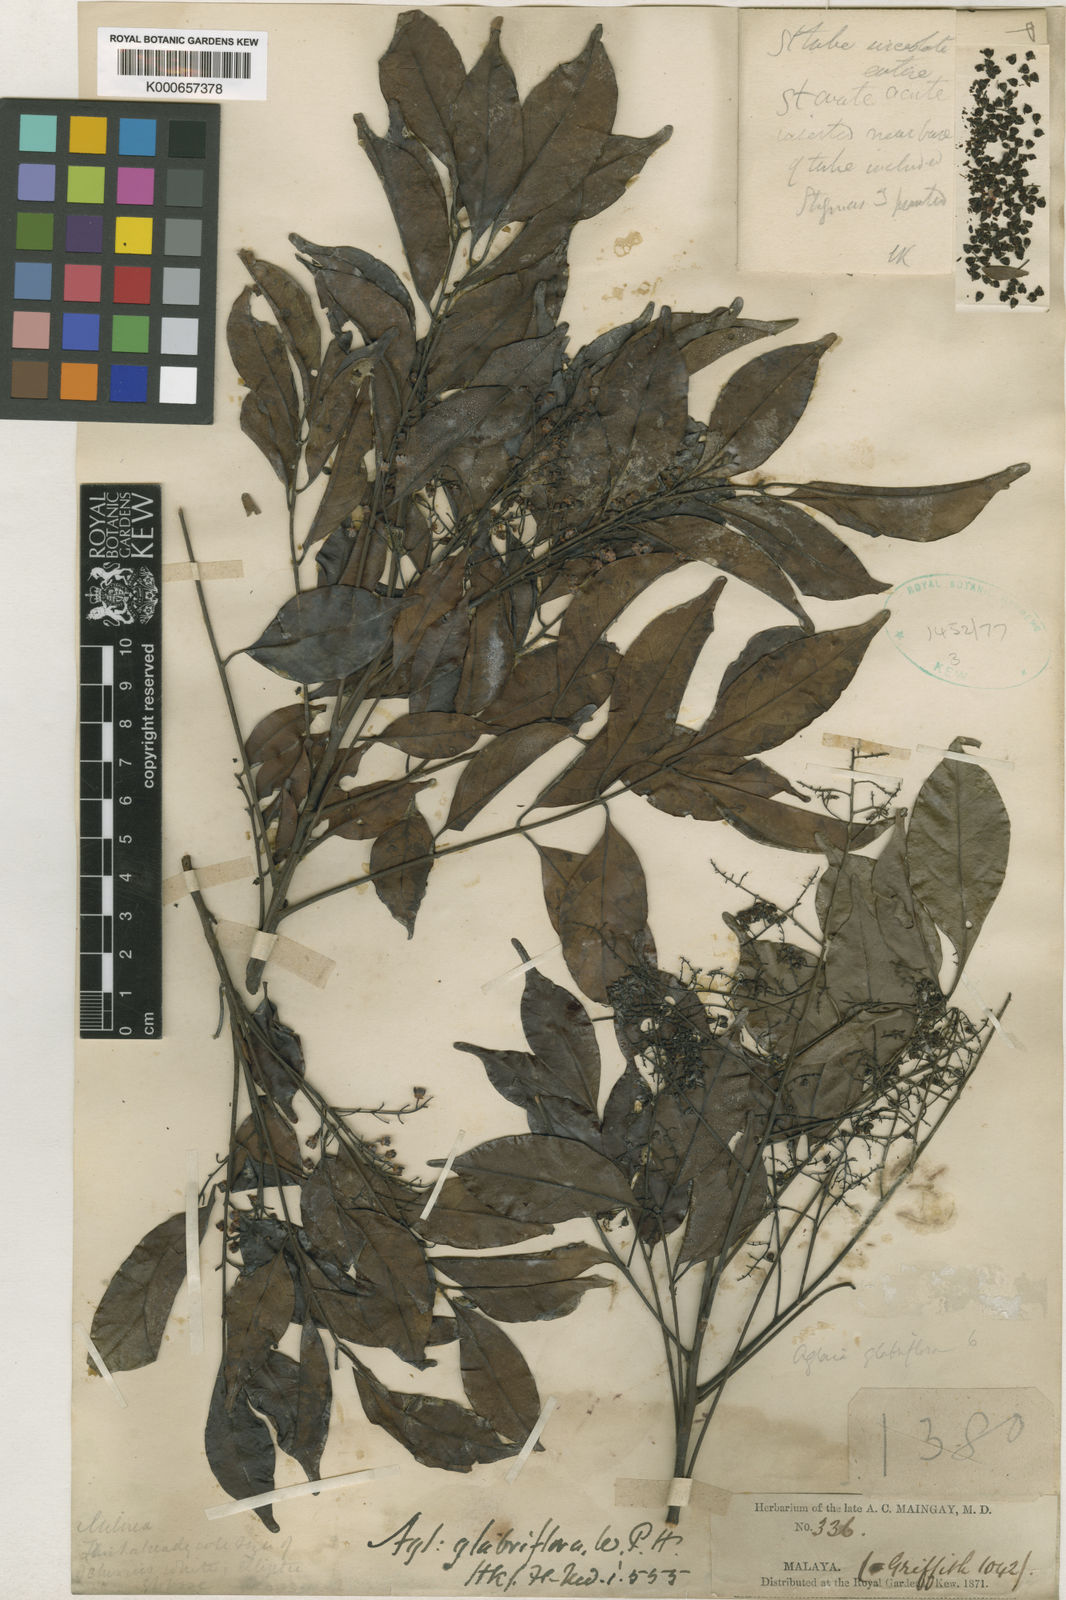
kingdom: Plantae
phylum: Tracheophyta
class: Magnoliopsida
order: Sapindales
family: Meliaceae
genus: Aglaia
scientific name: Aglaia leptantha
